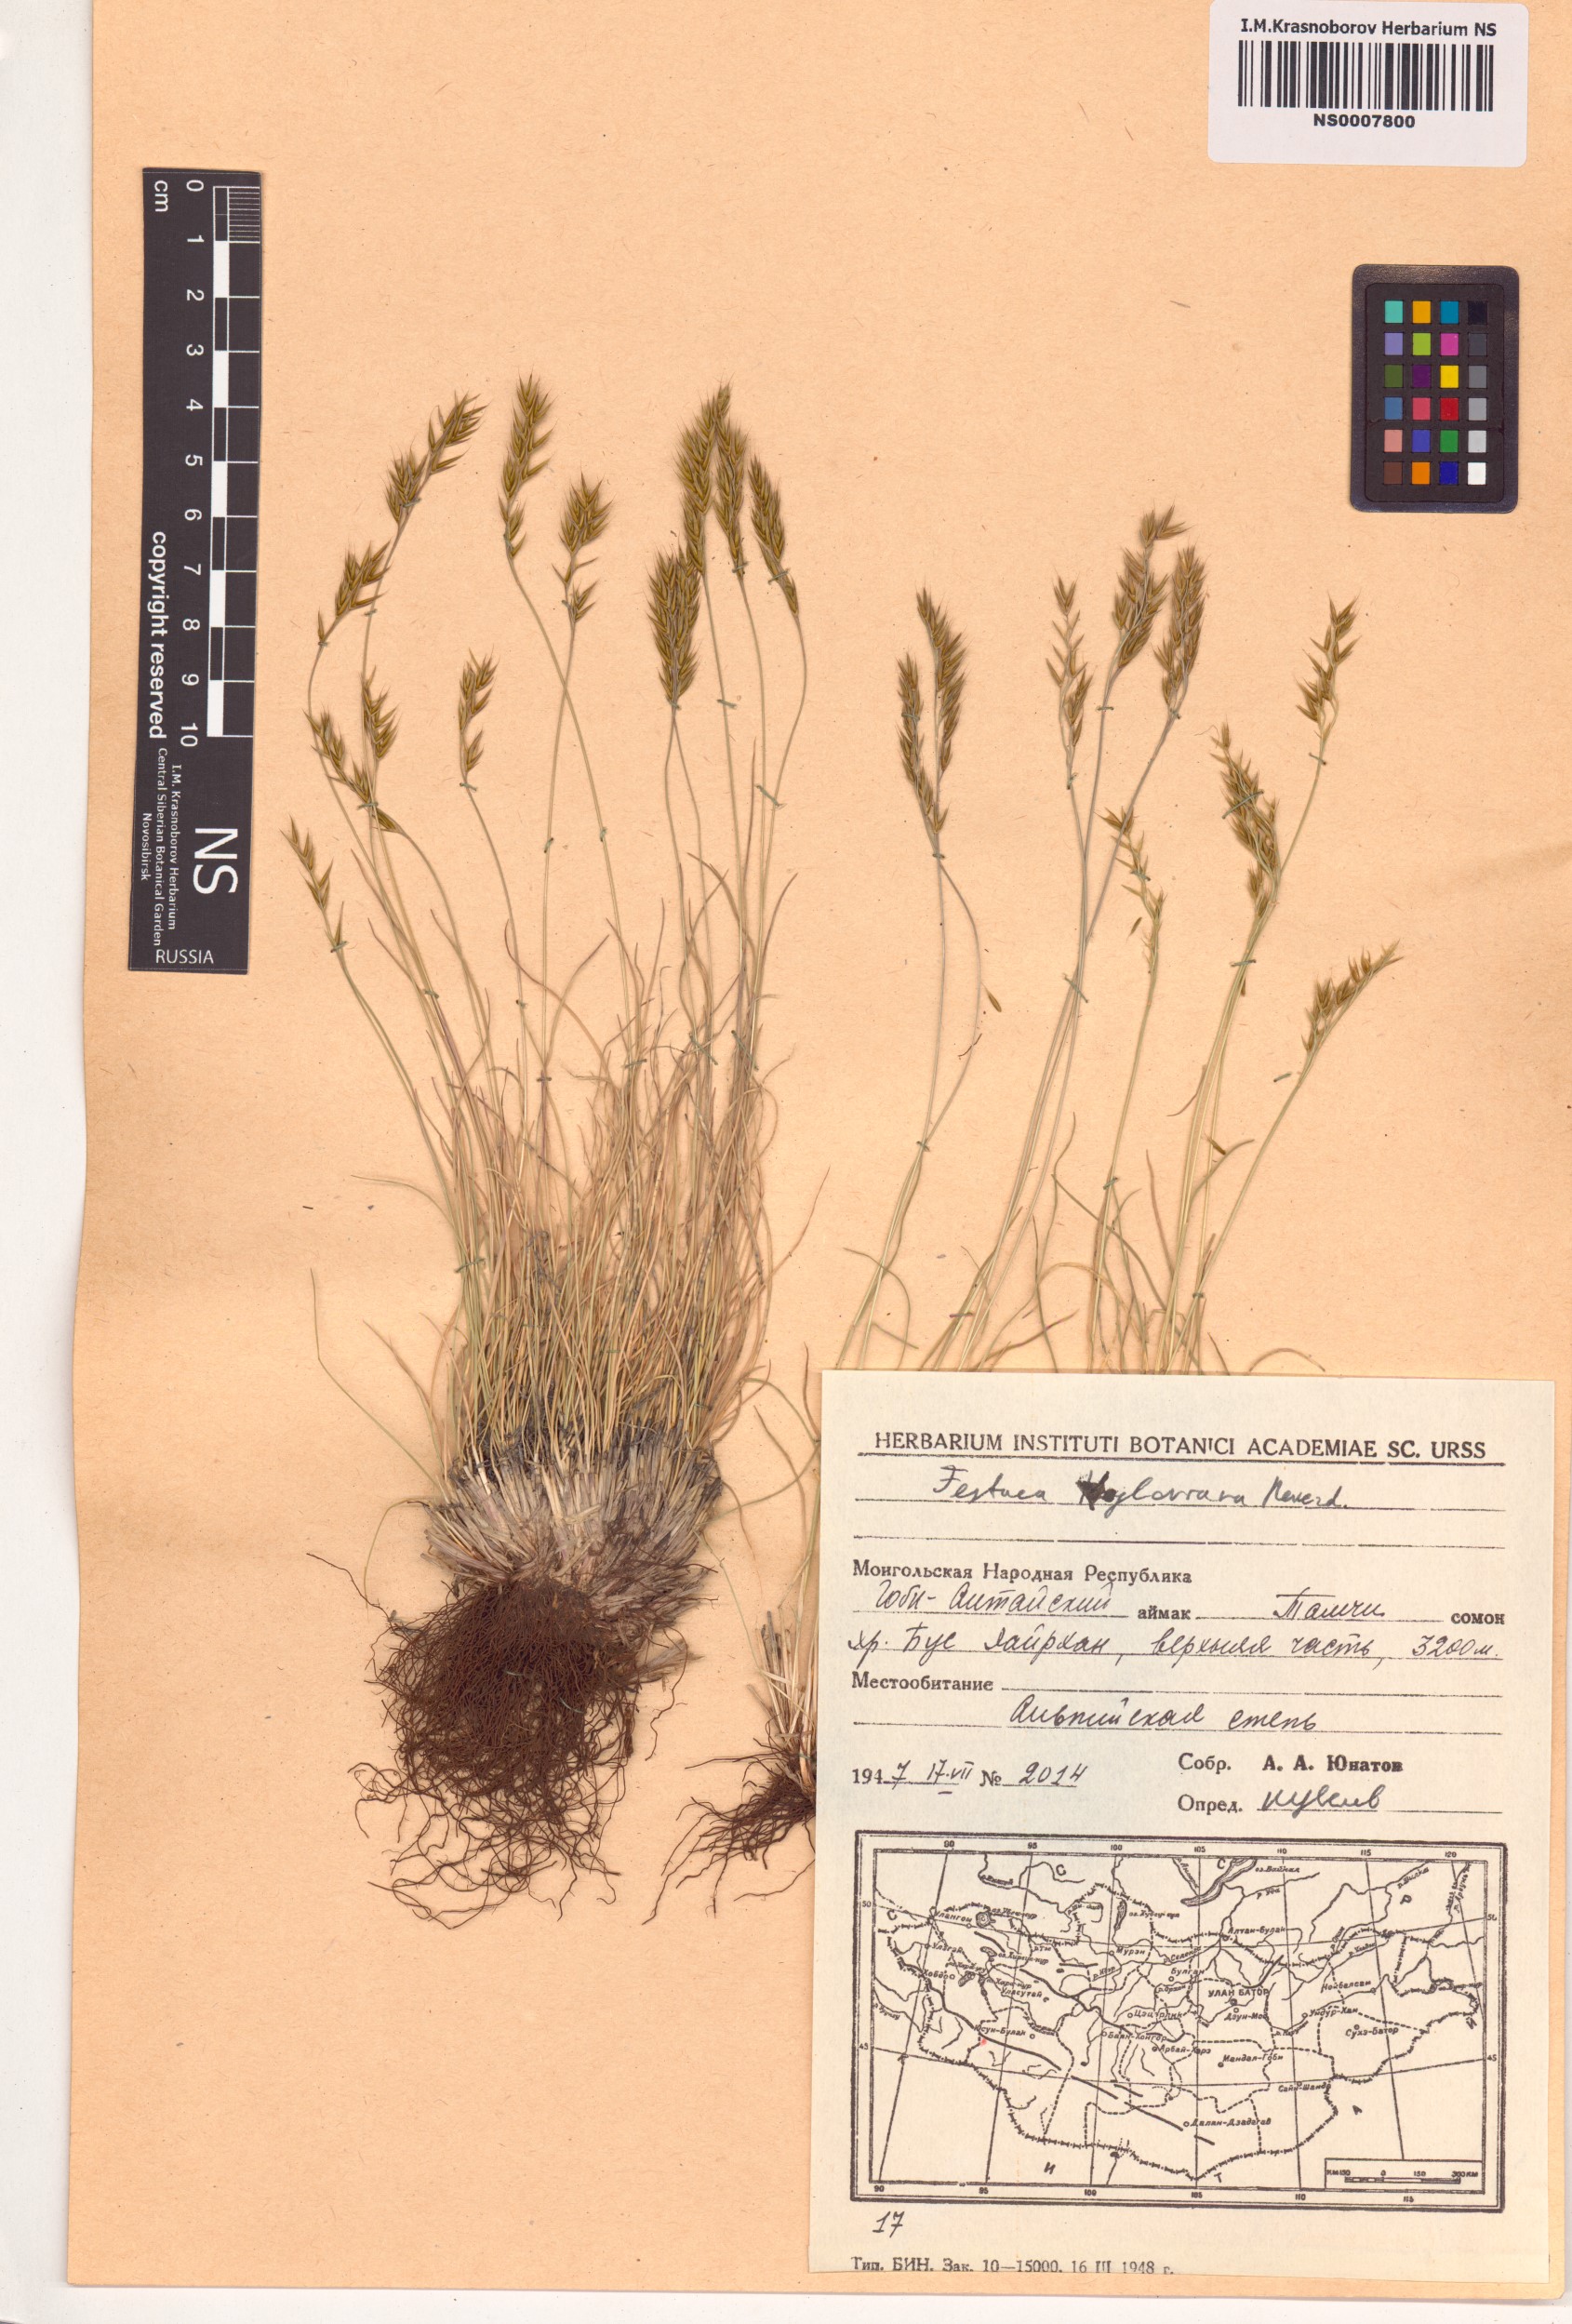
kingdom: Plantae
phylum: Tracheophyta
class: Liliopsida
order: Poales
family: Poaceae
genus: Festuca
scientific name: Festuca kryloviana
